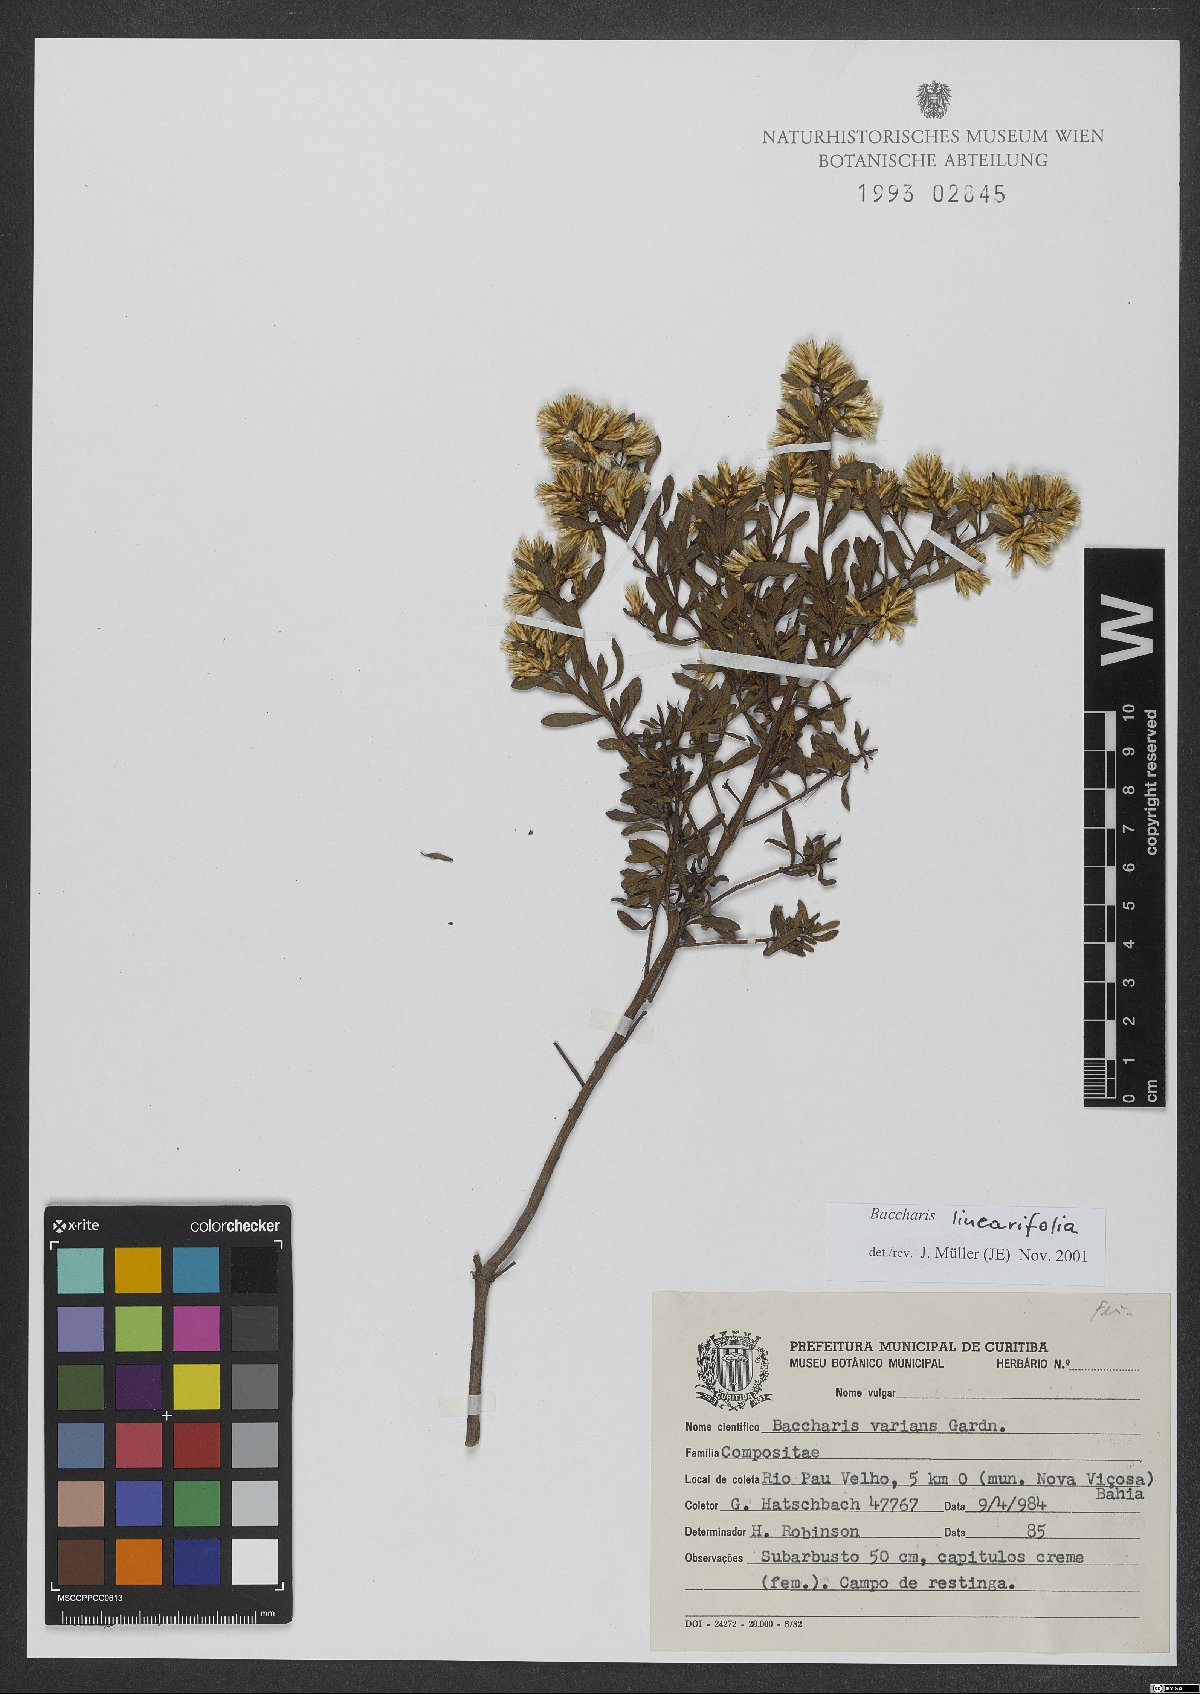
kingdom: Plantae
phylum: Tracheophyta
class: Magnoliopsida
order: Asterales
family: Asteraceae
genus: Baccharis
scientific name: Baccharis linearifolia
